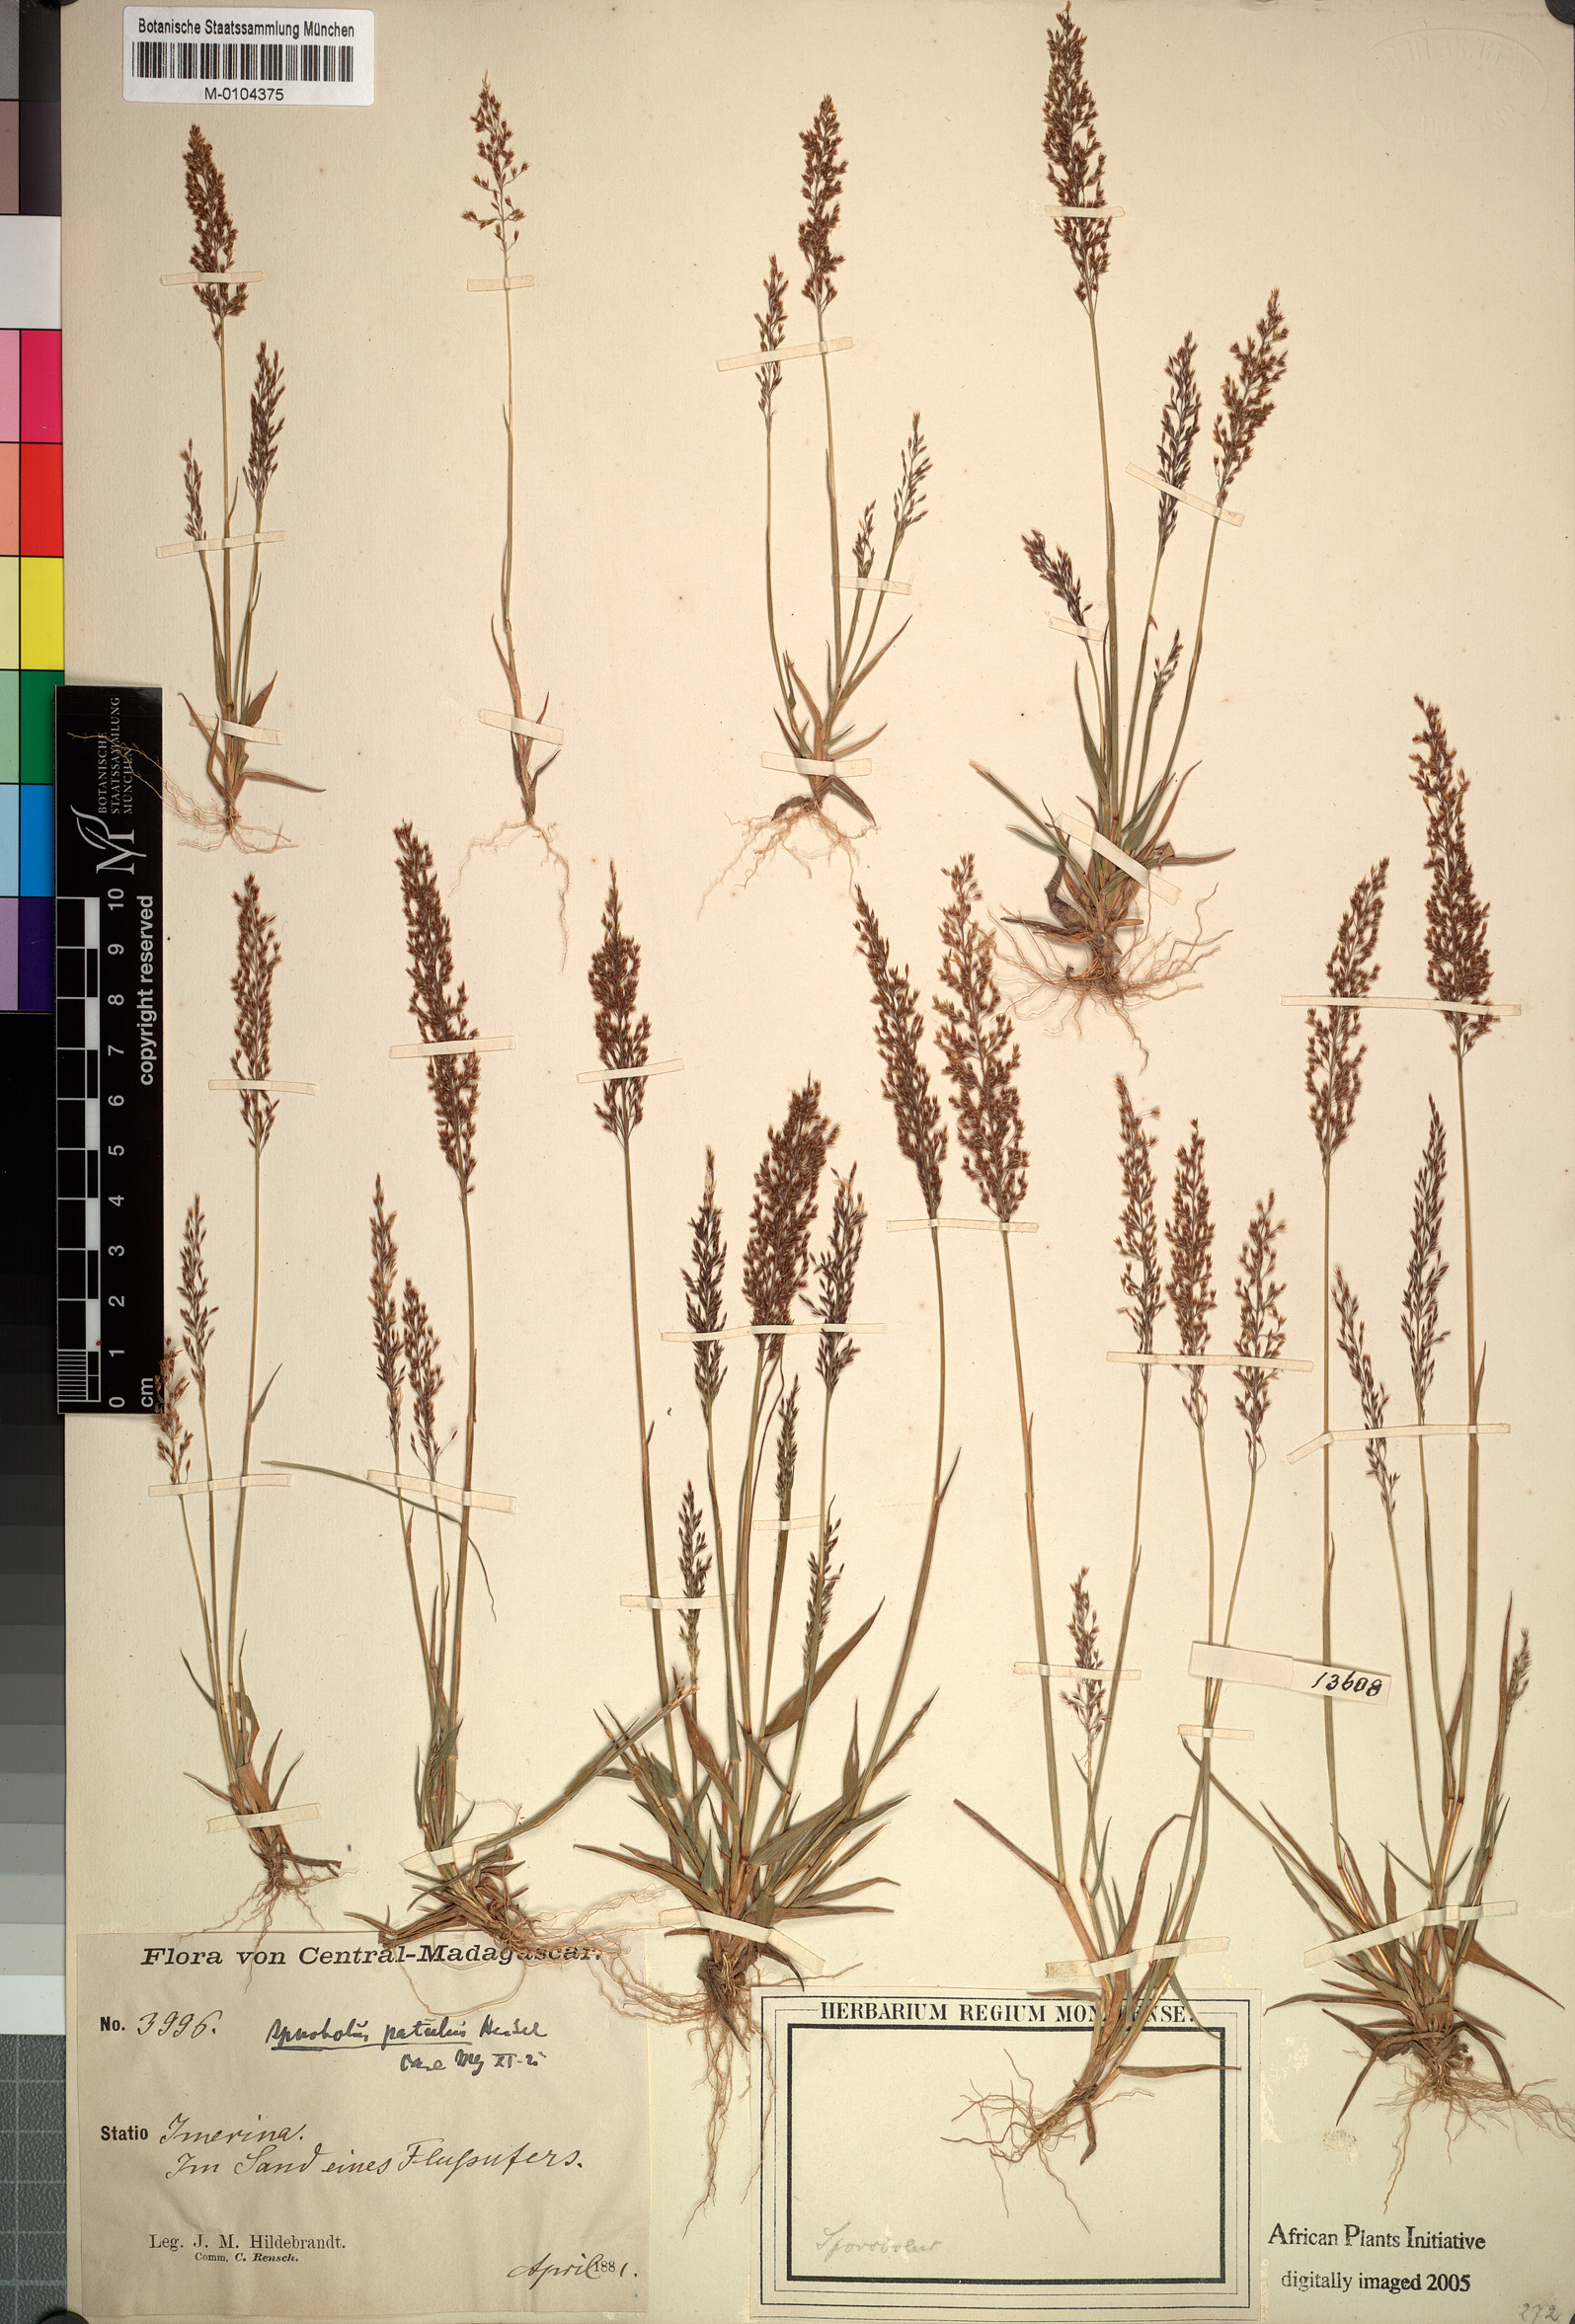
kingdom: Plantae
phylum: Tracheophyta
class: Liliopsida
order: Poales
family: Poaceae
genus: Sporobolus
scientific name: Sporobolus paniculatus
